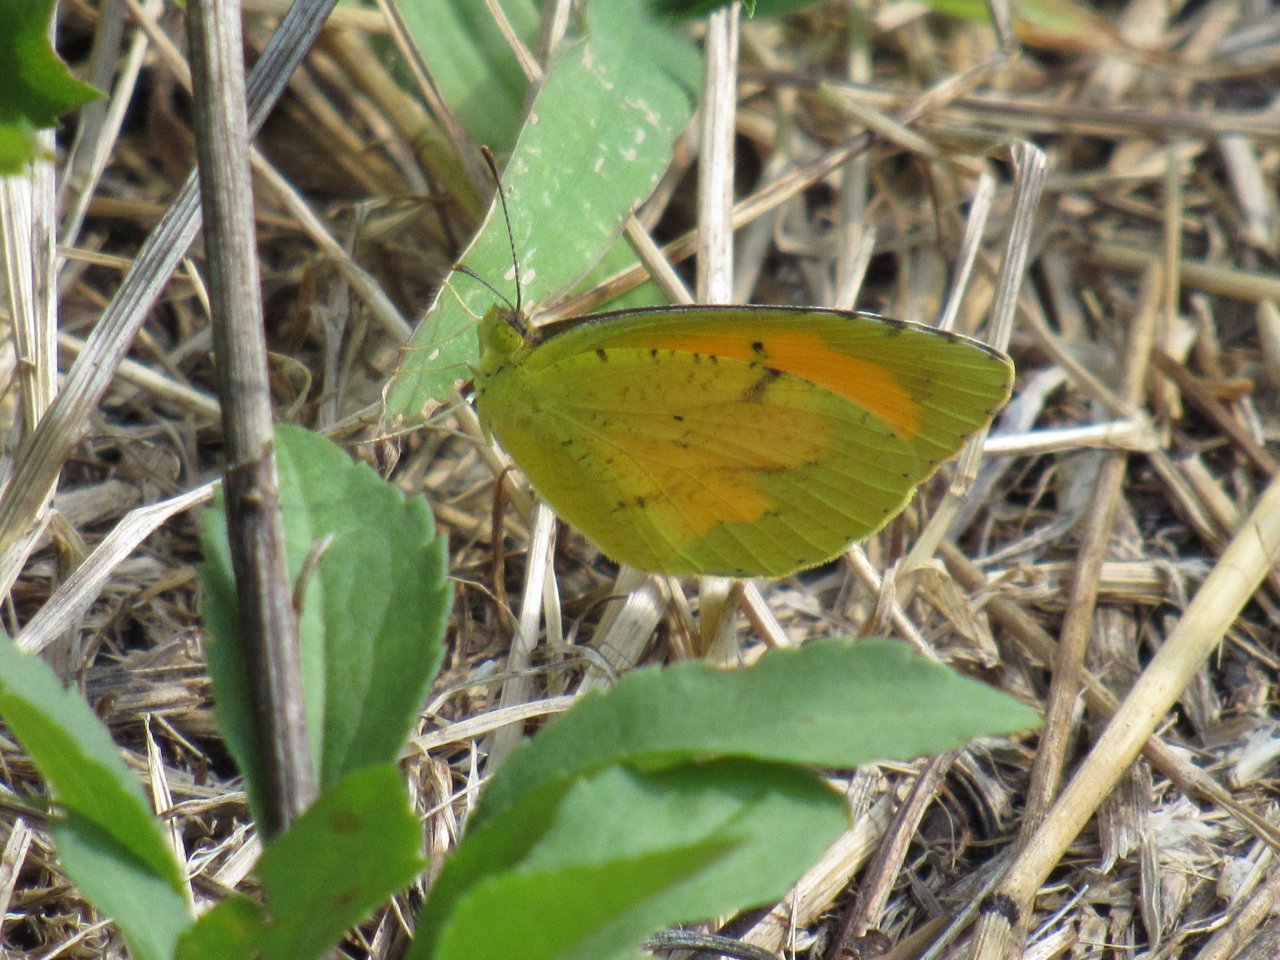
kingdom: Animalia
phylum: Arthropoda
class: Insecta
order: Lepidoptera
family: Pieridae
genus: Abaeis
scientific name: Abaeis nicippe
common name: Sleepy Orange
